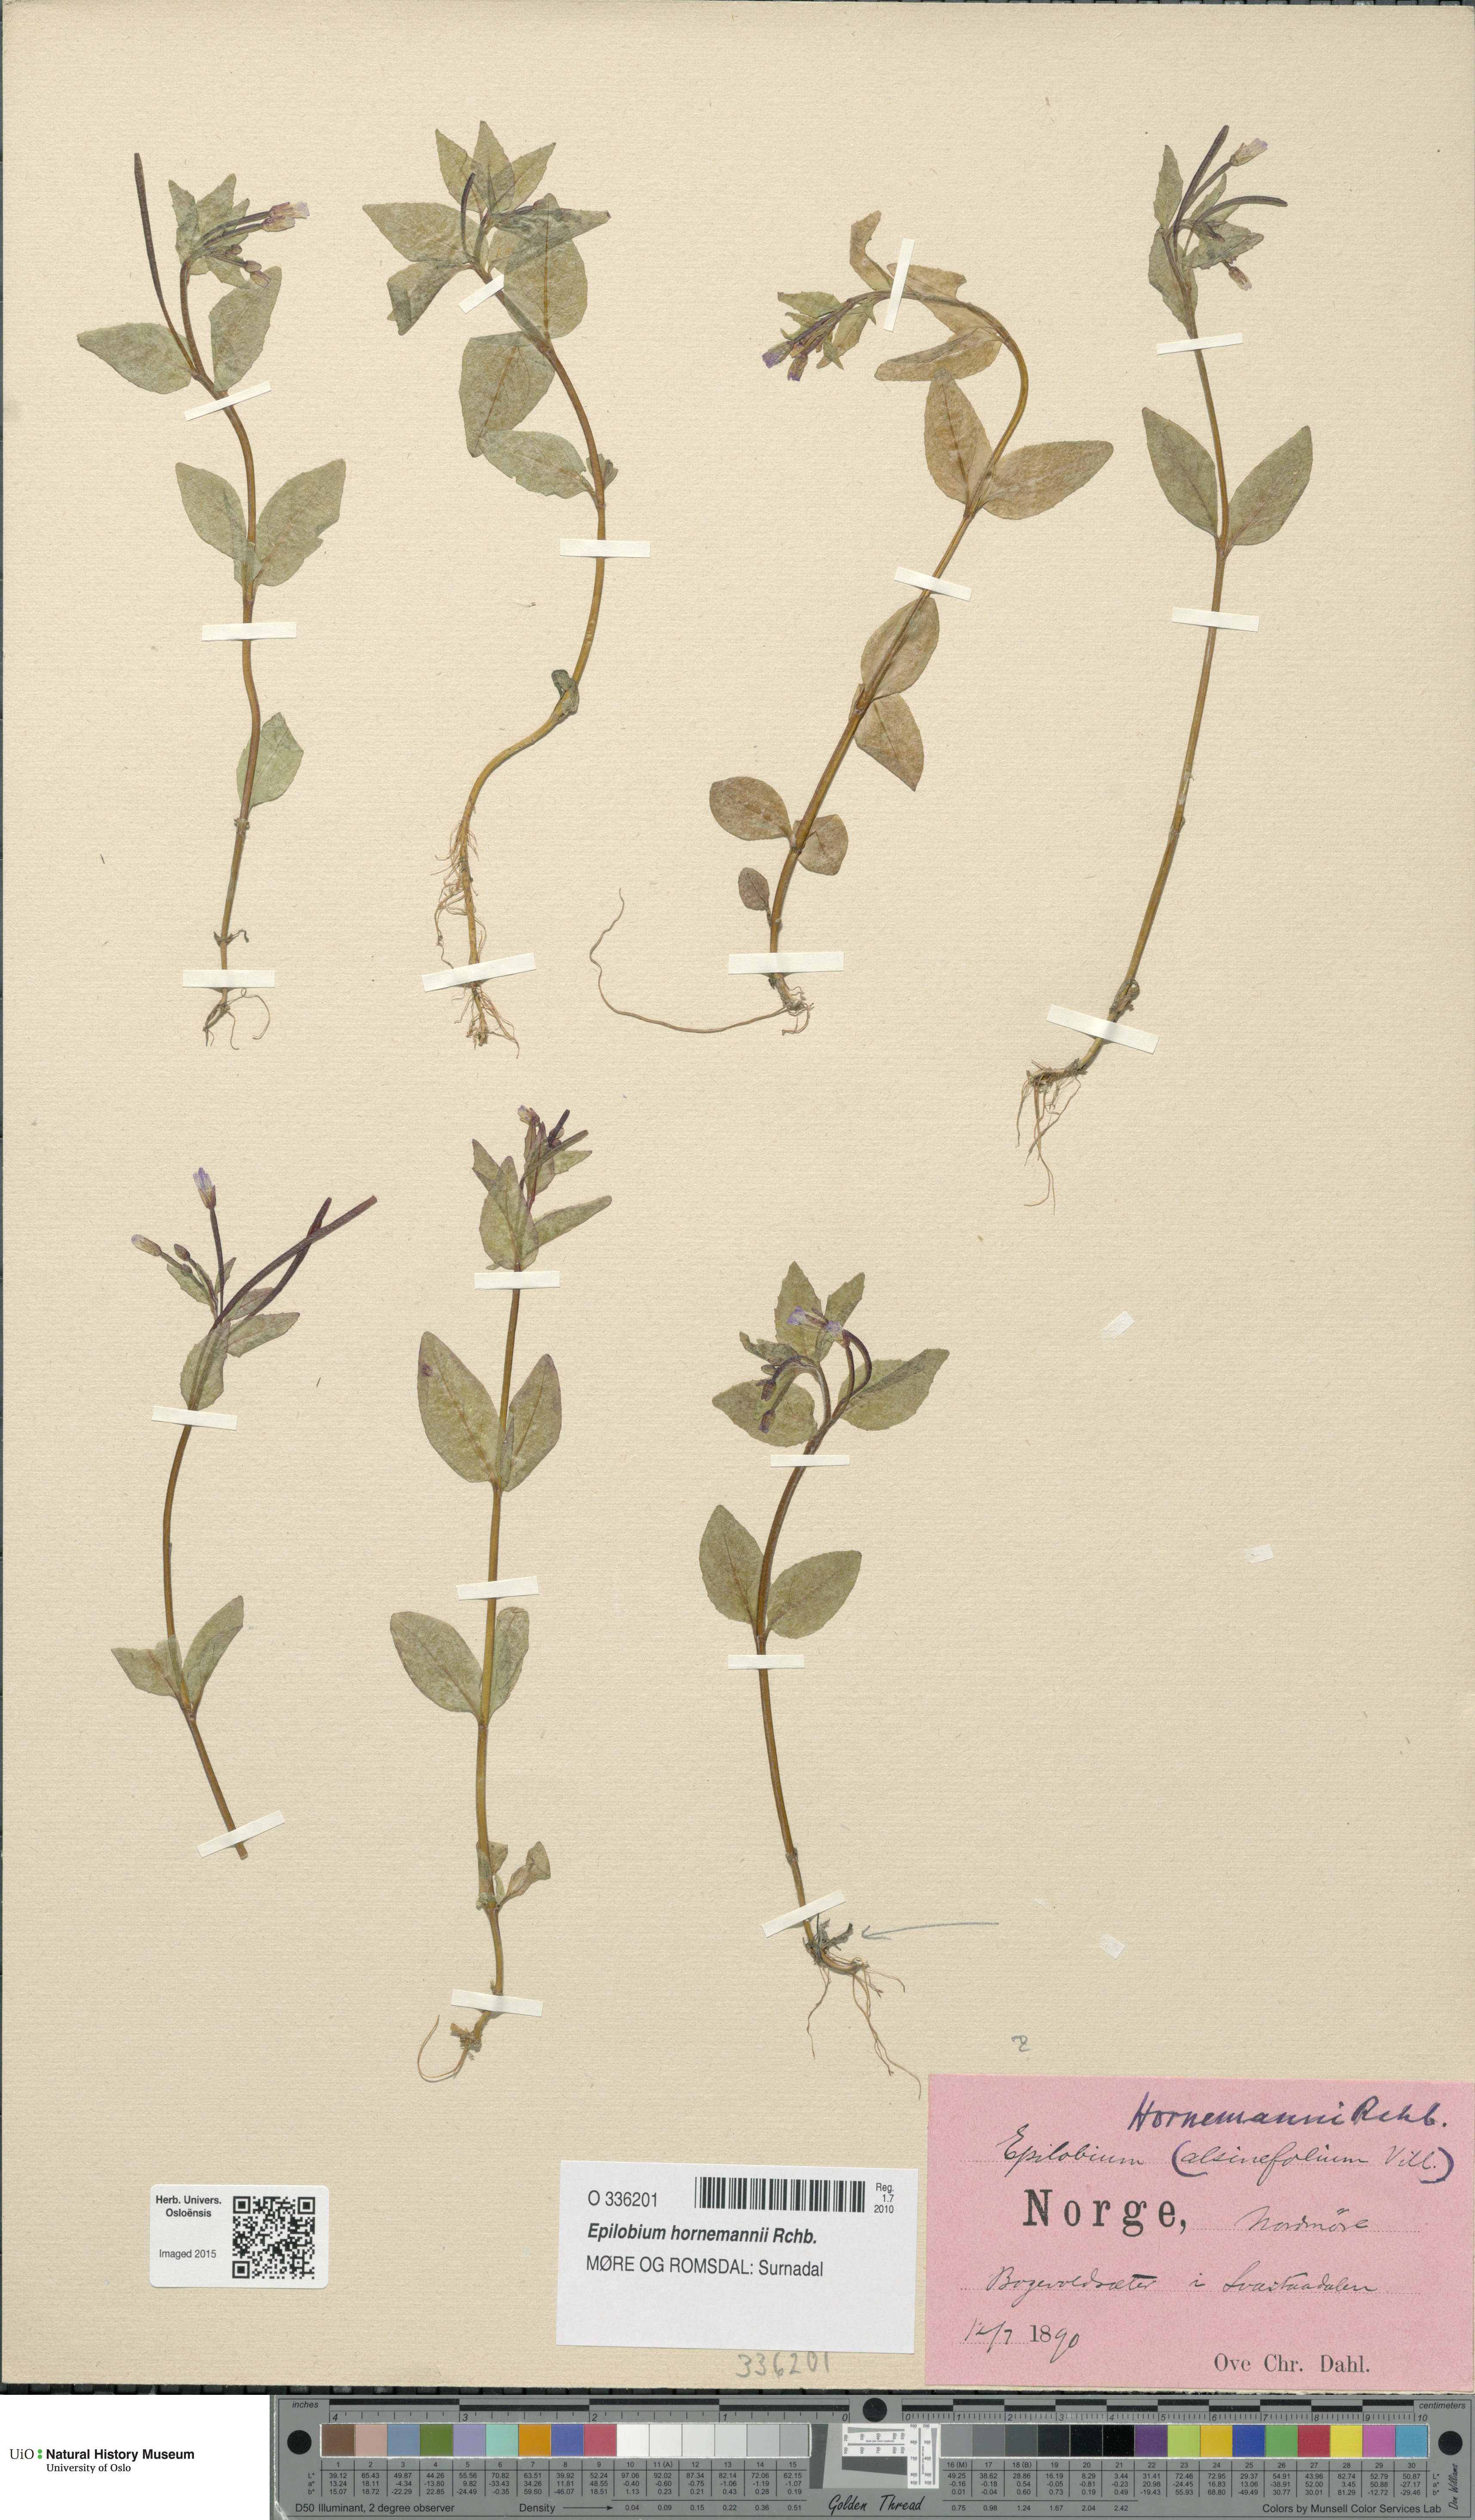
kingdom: Plantae
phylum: Tracheophyta
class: Magnoliopsida
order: Myrtales
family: Onagraceae
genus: Epilobium
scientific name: Epilobium hornemannii
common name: Hornemann's willowherb
